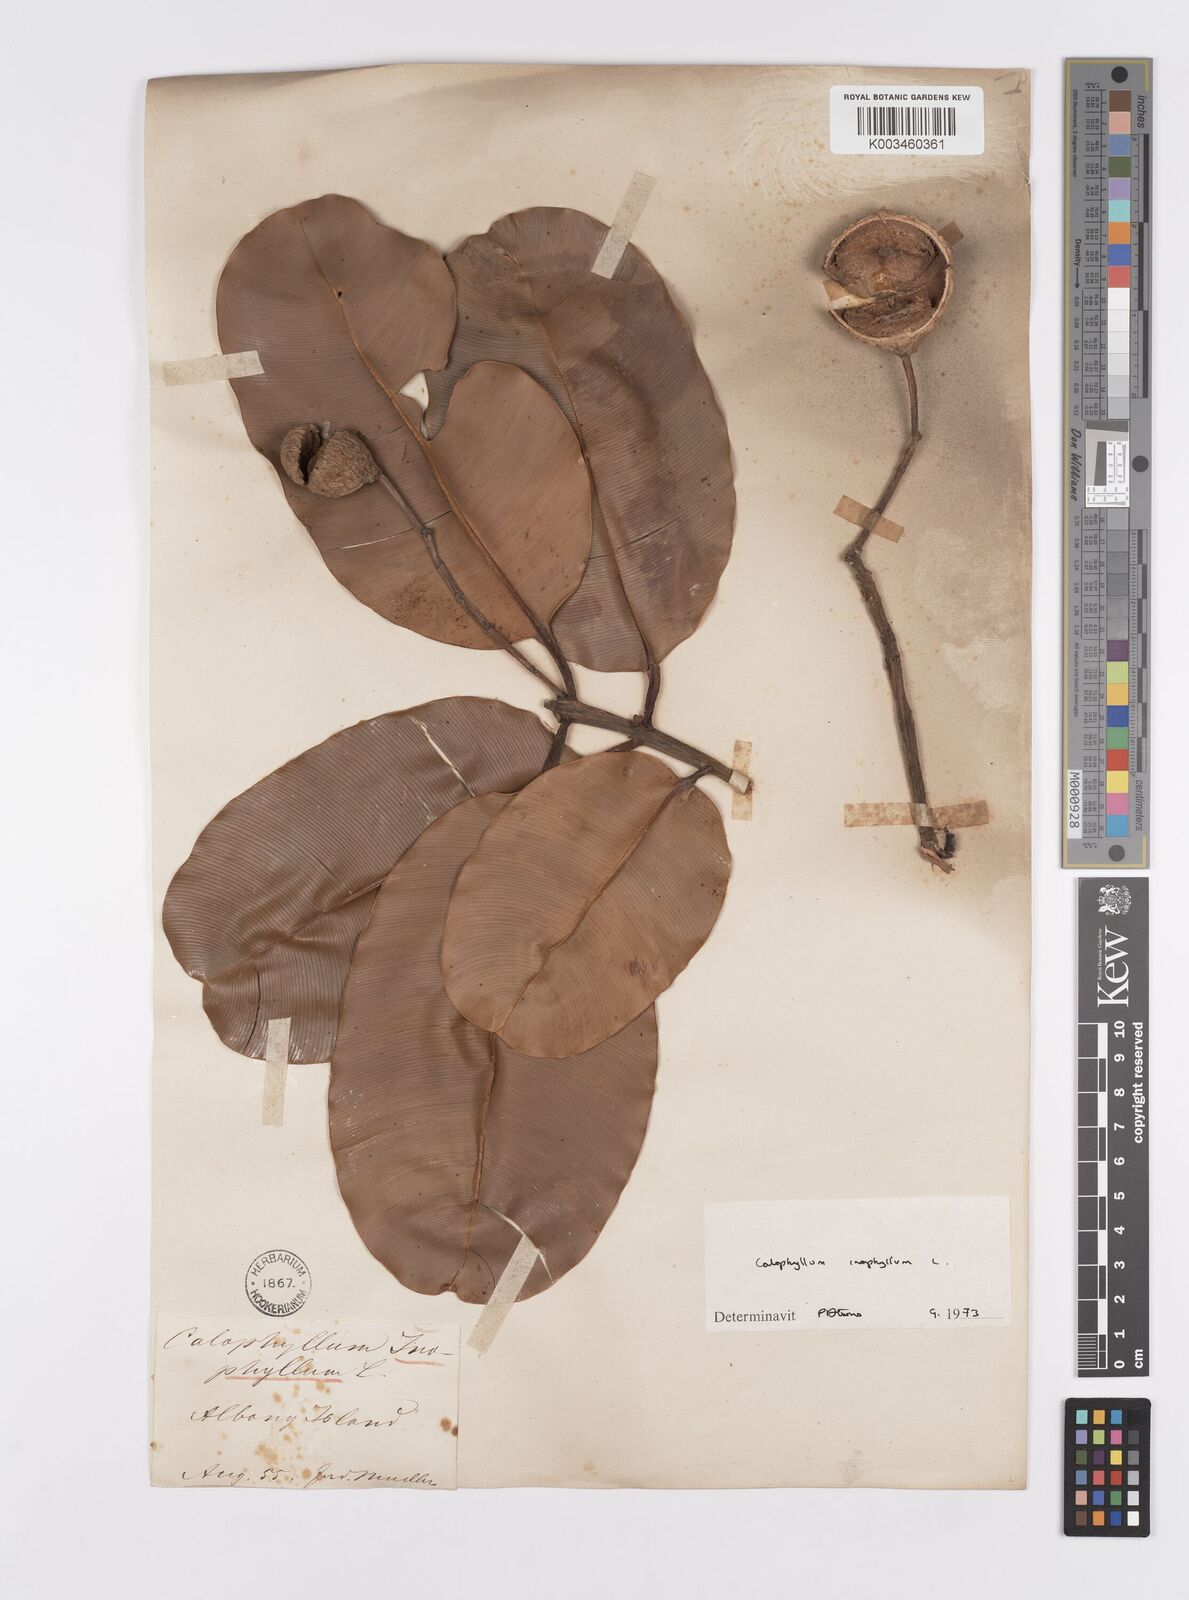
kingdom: Plantae
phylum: Tracheophyta
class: Magnoliopsida
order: Malpighiales
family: Calophyllaceae
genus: Calophyllum
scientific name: Calophyllum inophyllum
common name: Alexandrian laurel
